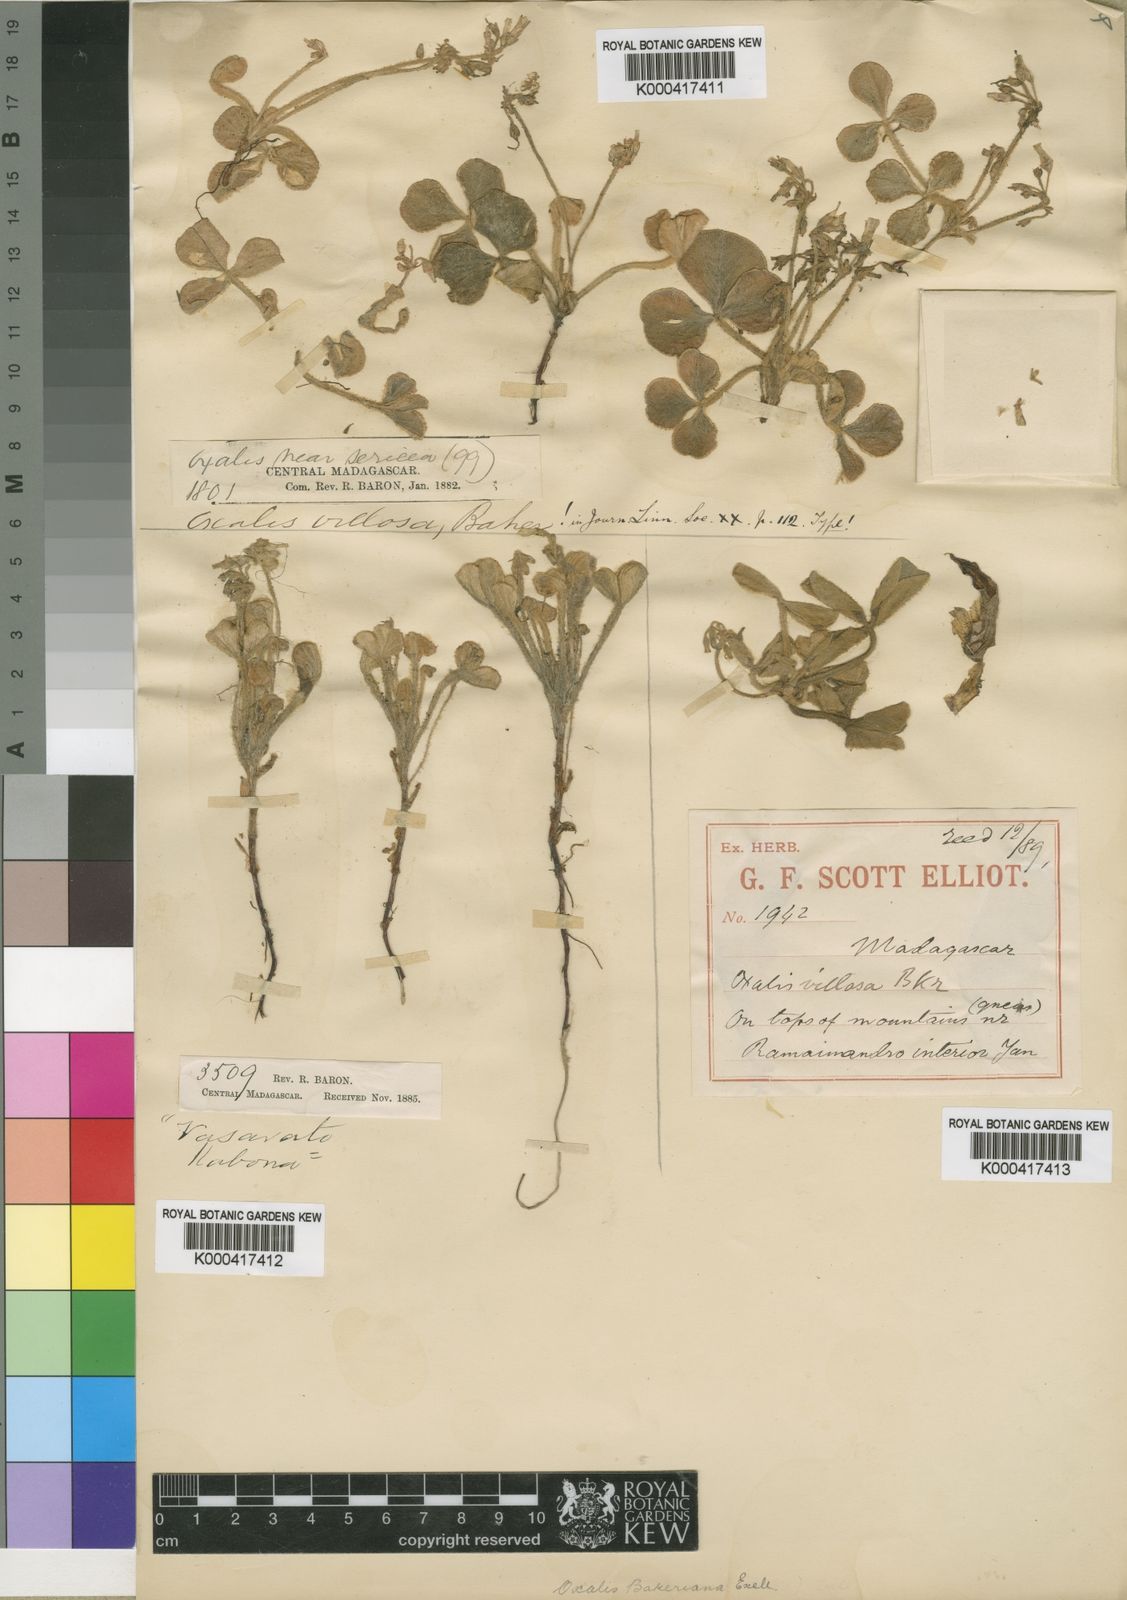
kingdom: Plantae
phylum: Tracheophyta
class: Magnoliopsida
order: Oxalidales
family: Oxalidaceae
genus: Oxalis
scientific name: Oxalis bakeriana
